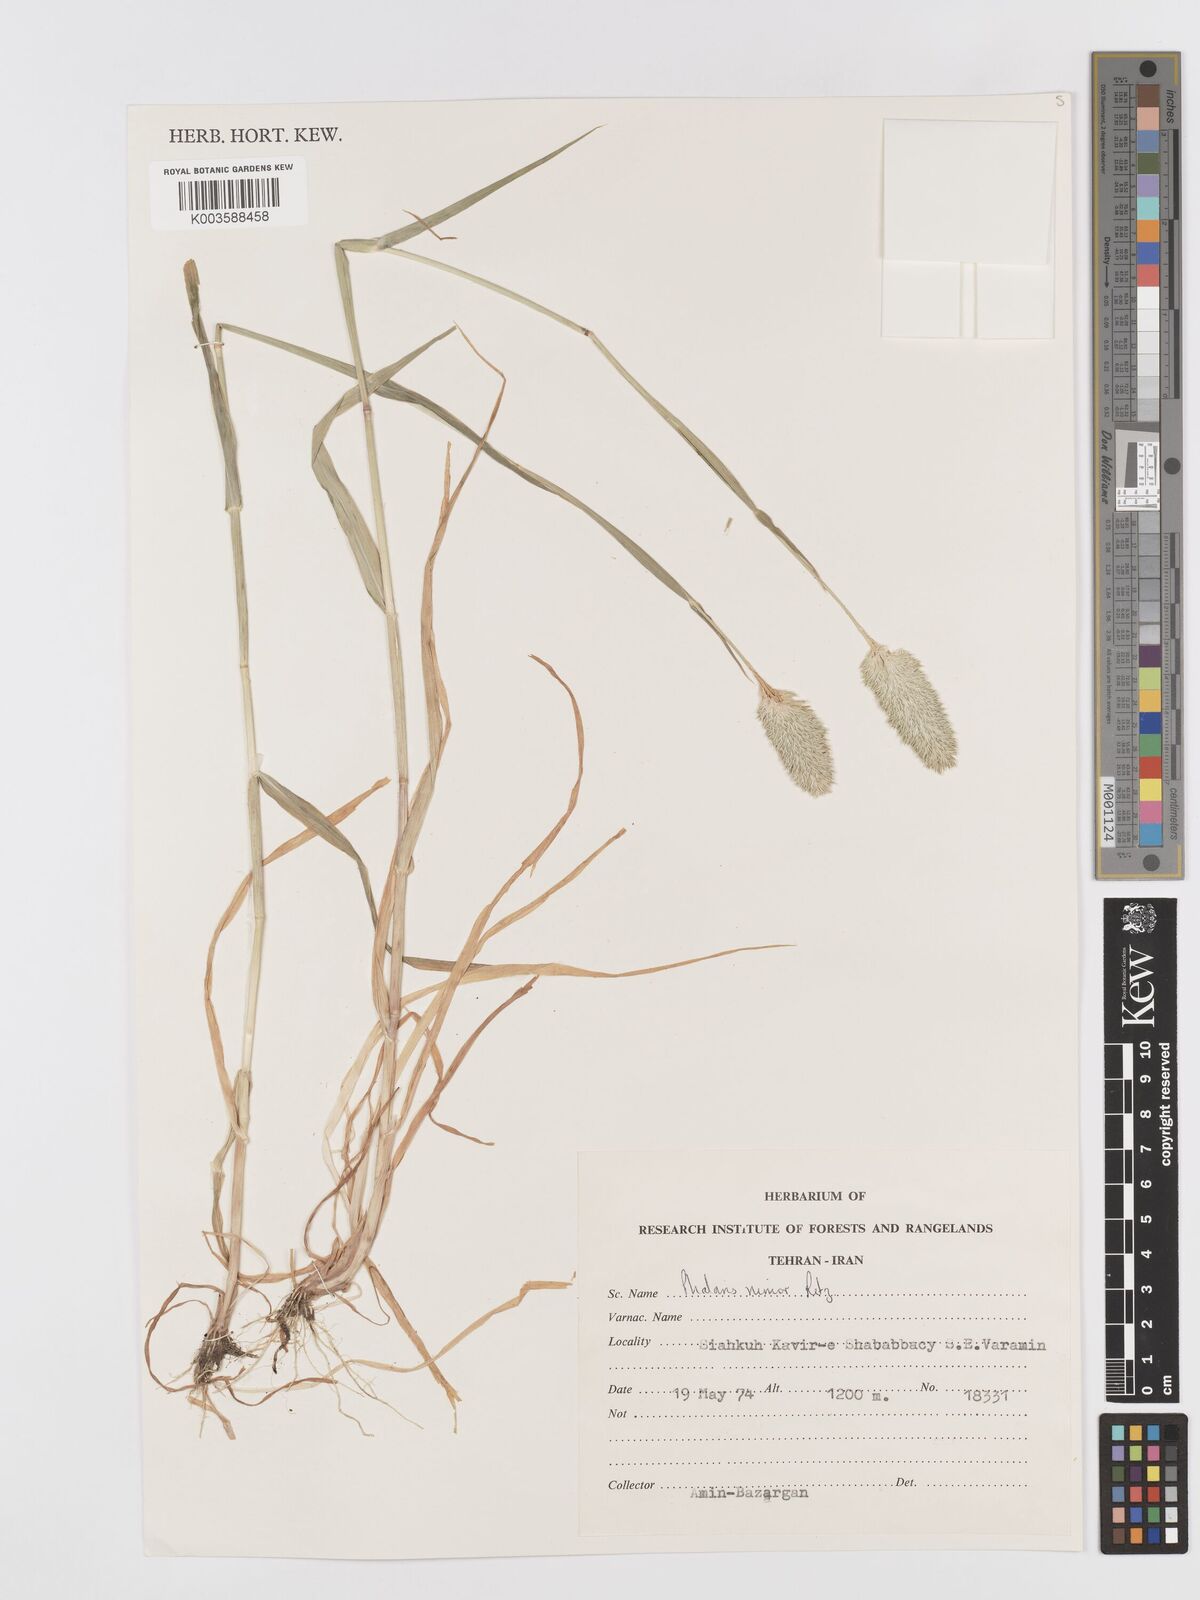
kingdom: Plantae
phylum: Tracheophyta
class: Liliopsida
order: Poales
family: Poaceae
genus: Phalaris
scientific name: Phalaris minor
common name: Littleseed canarygrass
